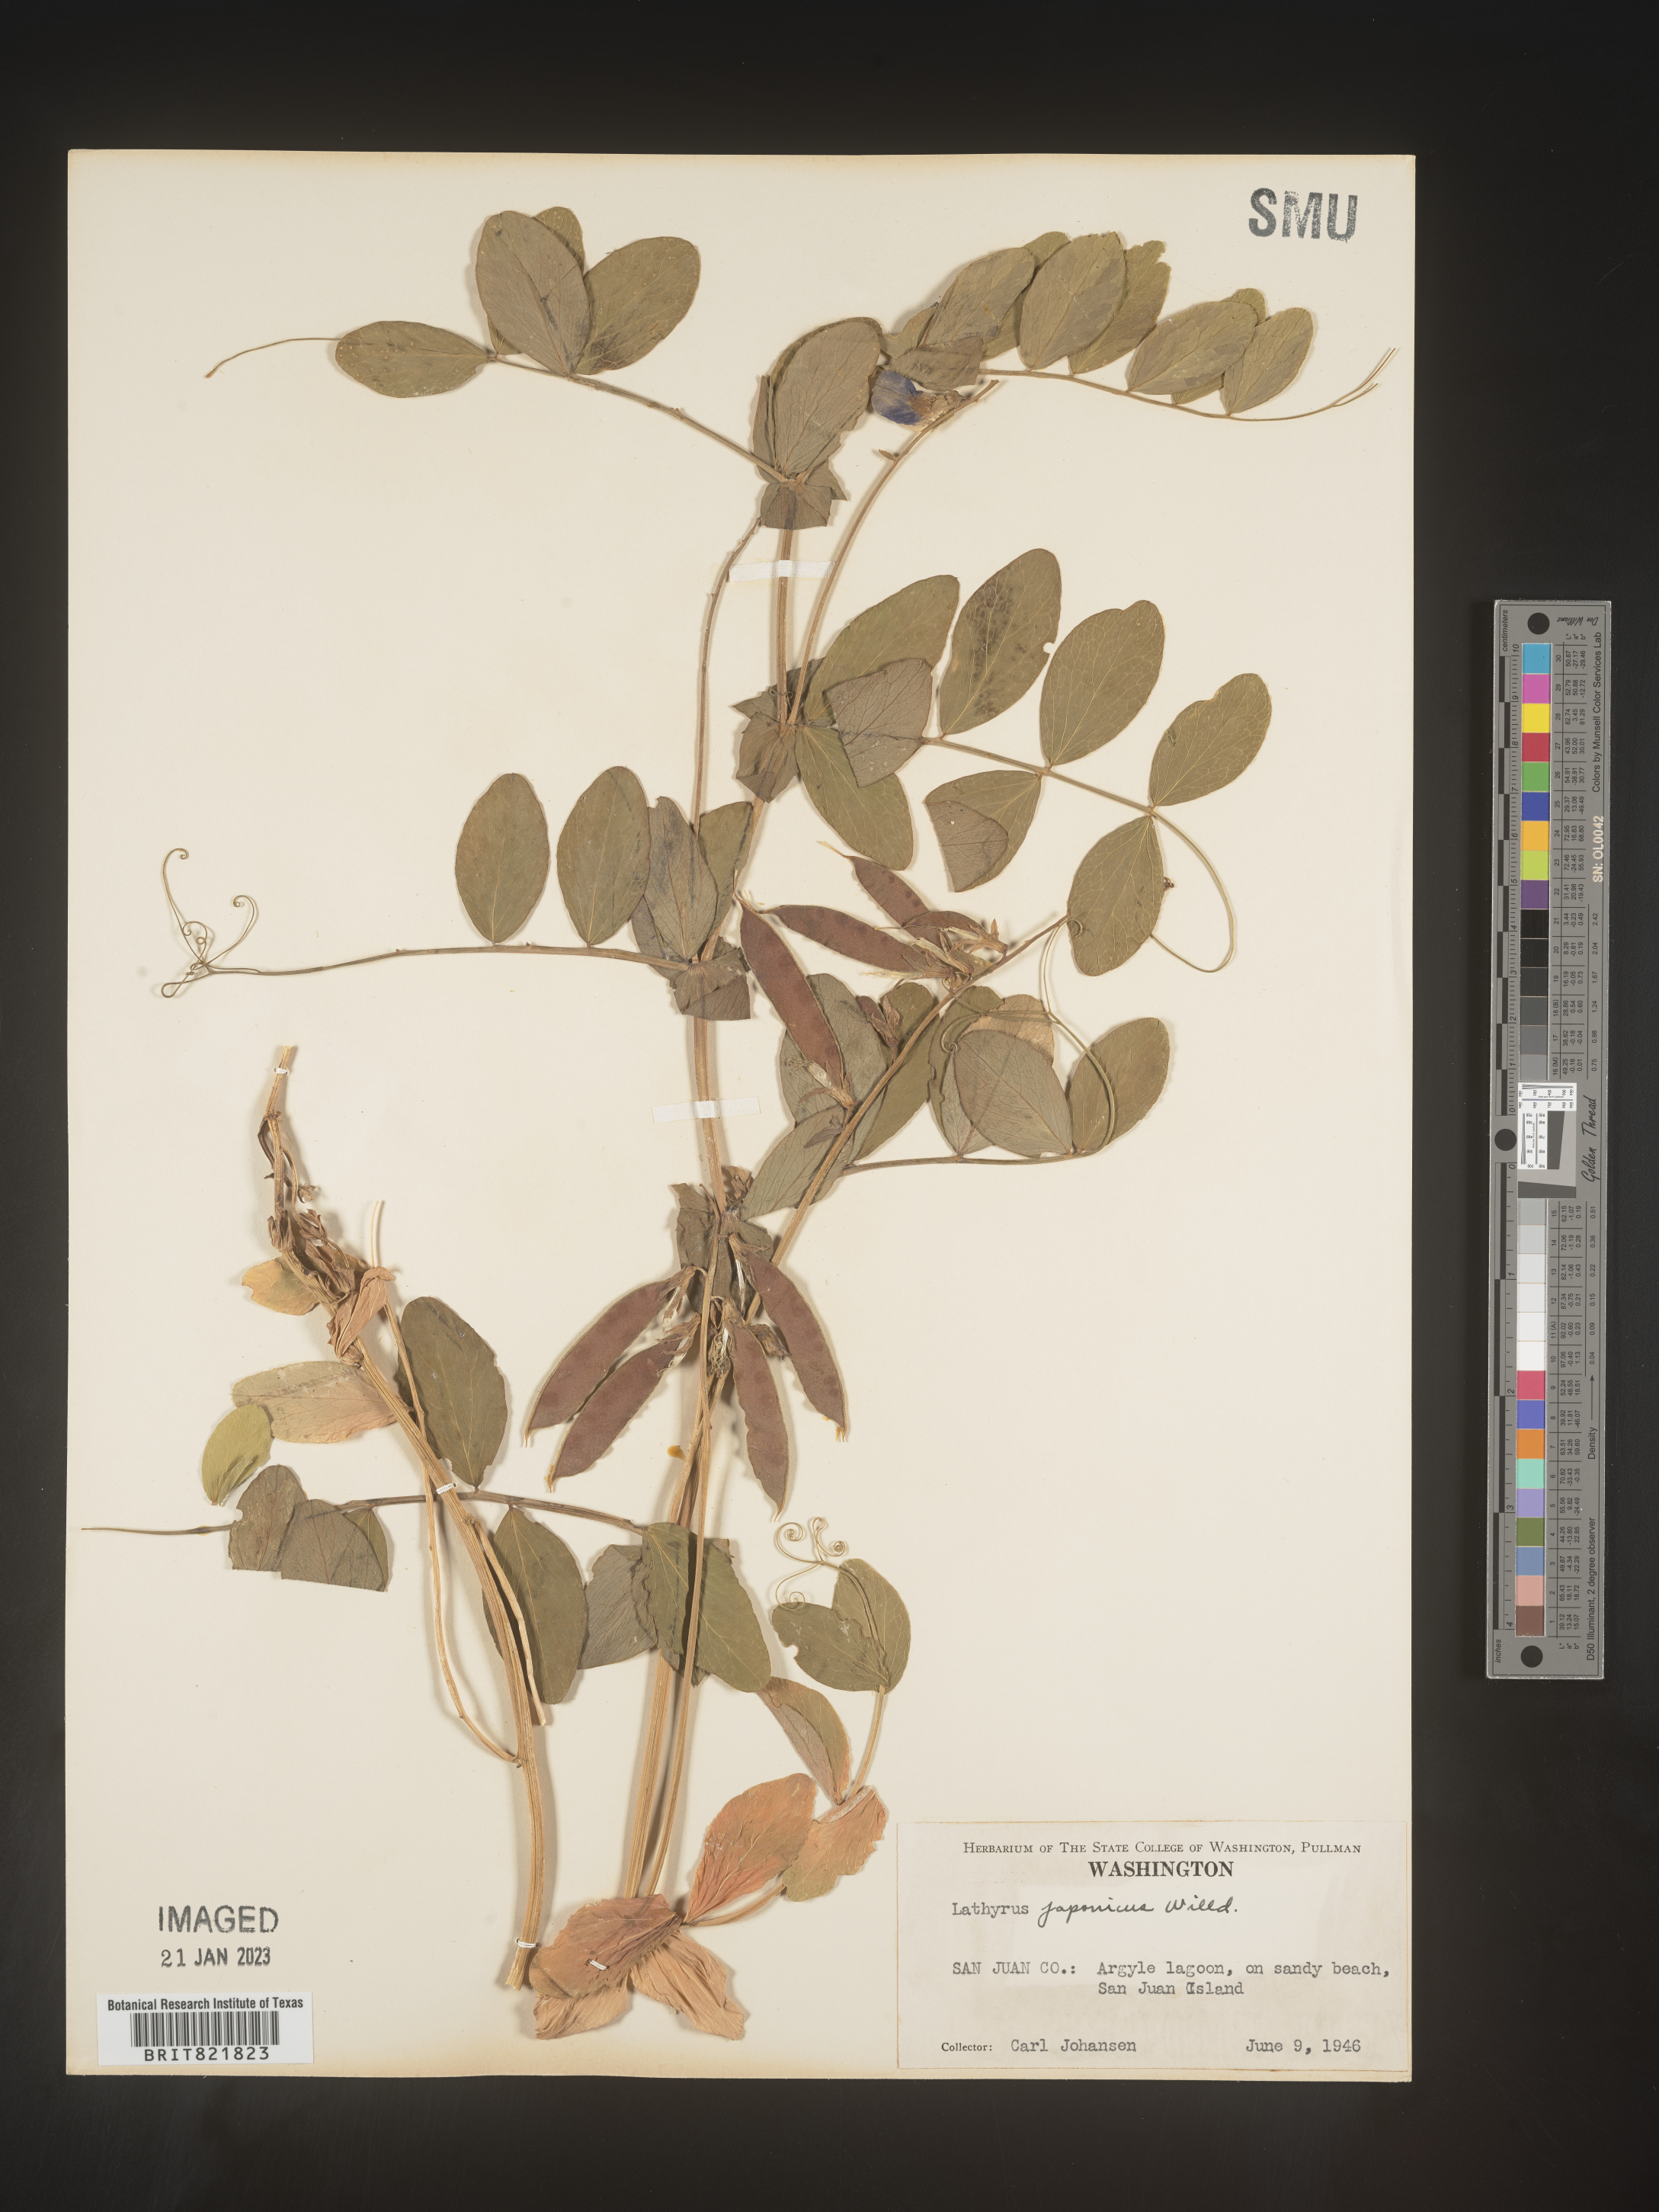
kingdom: Plantae
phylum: Tracheophyta
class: Magnoliopsida
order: Fabales
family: Fabaceae
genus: Lathyrus
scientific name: Lathyrus japonicus
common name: Sea pea
